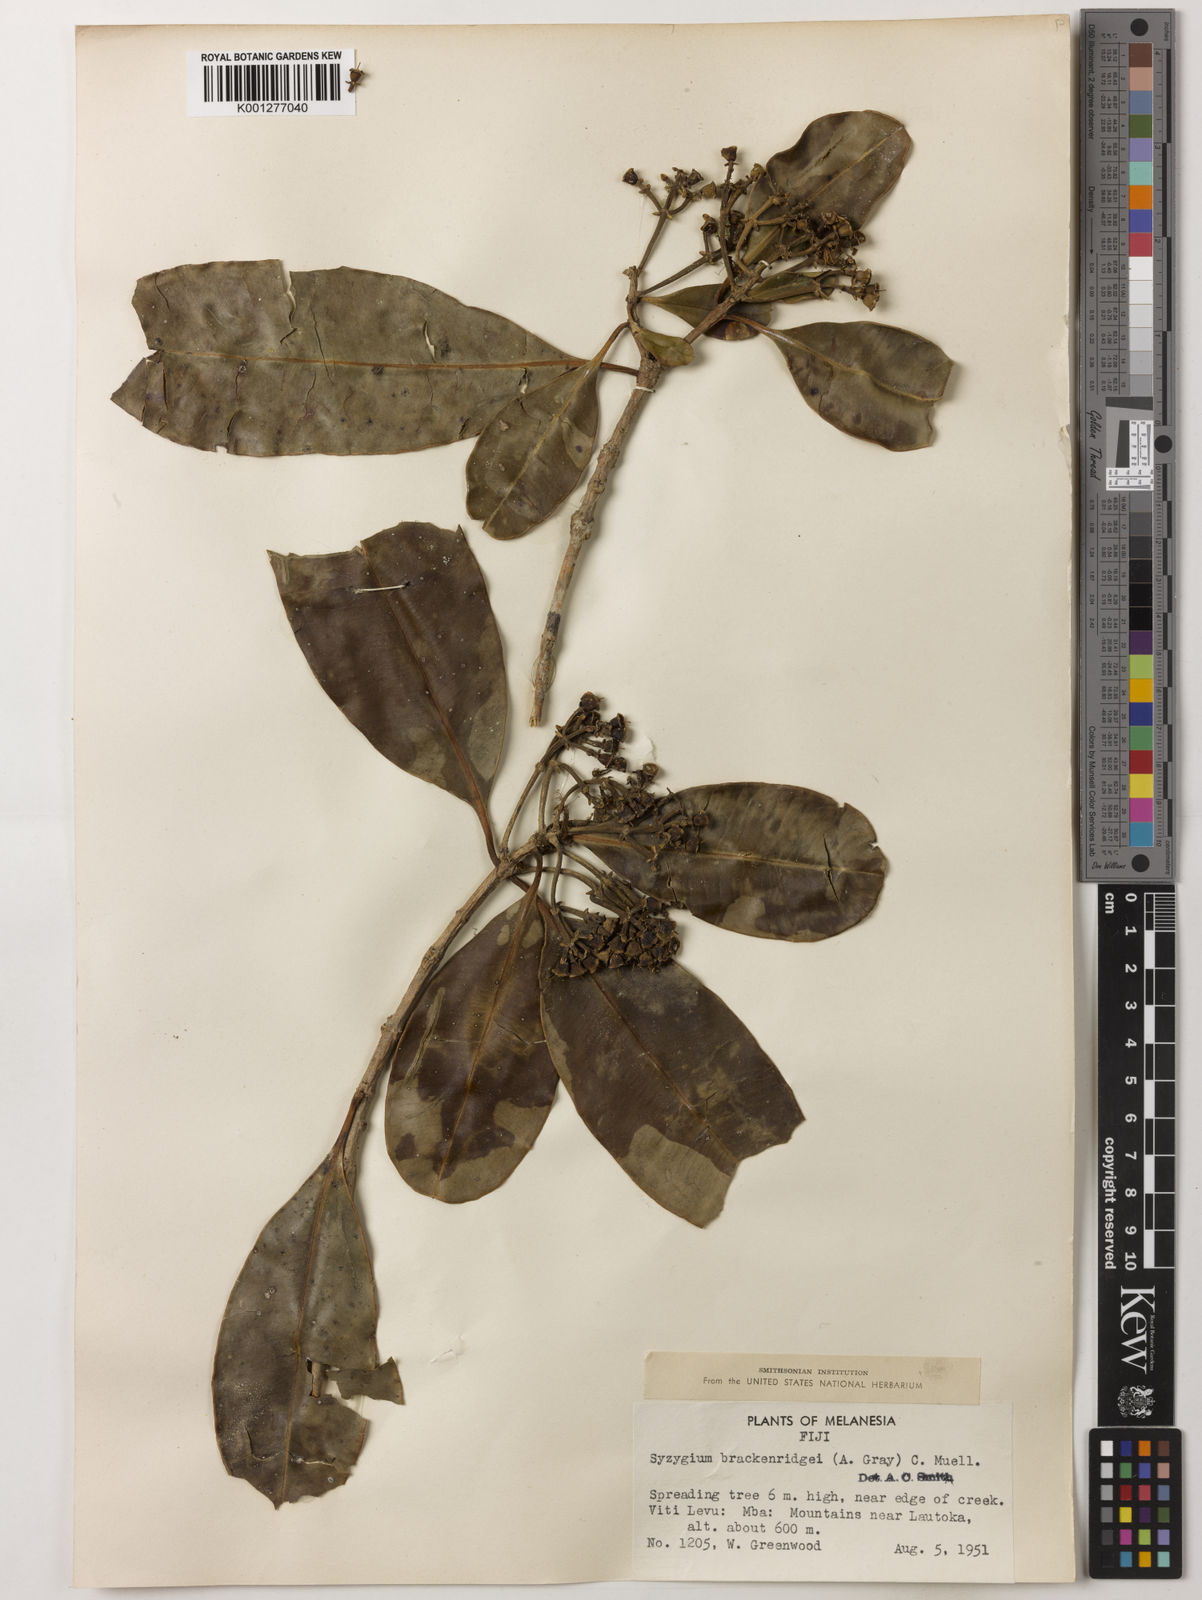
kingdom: Plantae
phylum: Tracheophyta
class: Magnoliopsida
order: Myrtales
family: Myrtaceae
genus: Syzygium
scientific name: Syzygium
